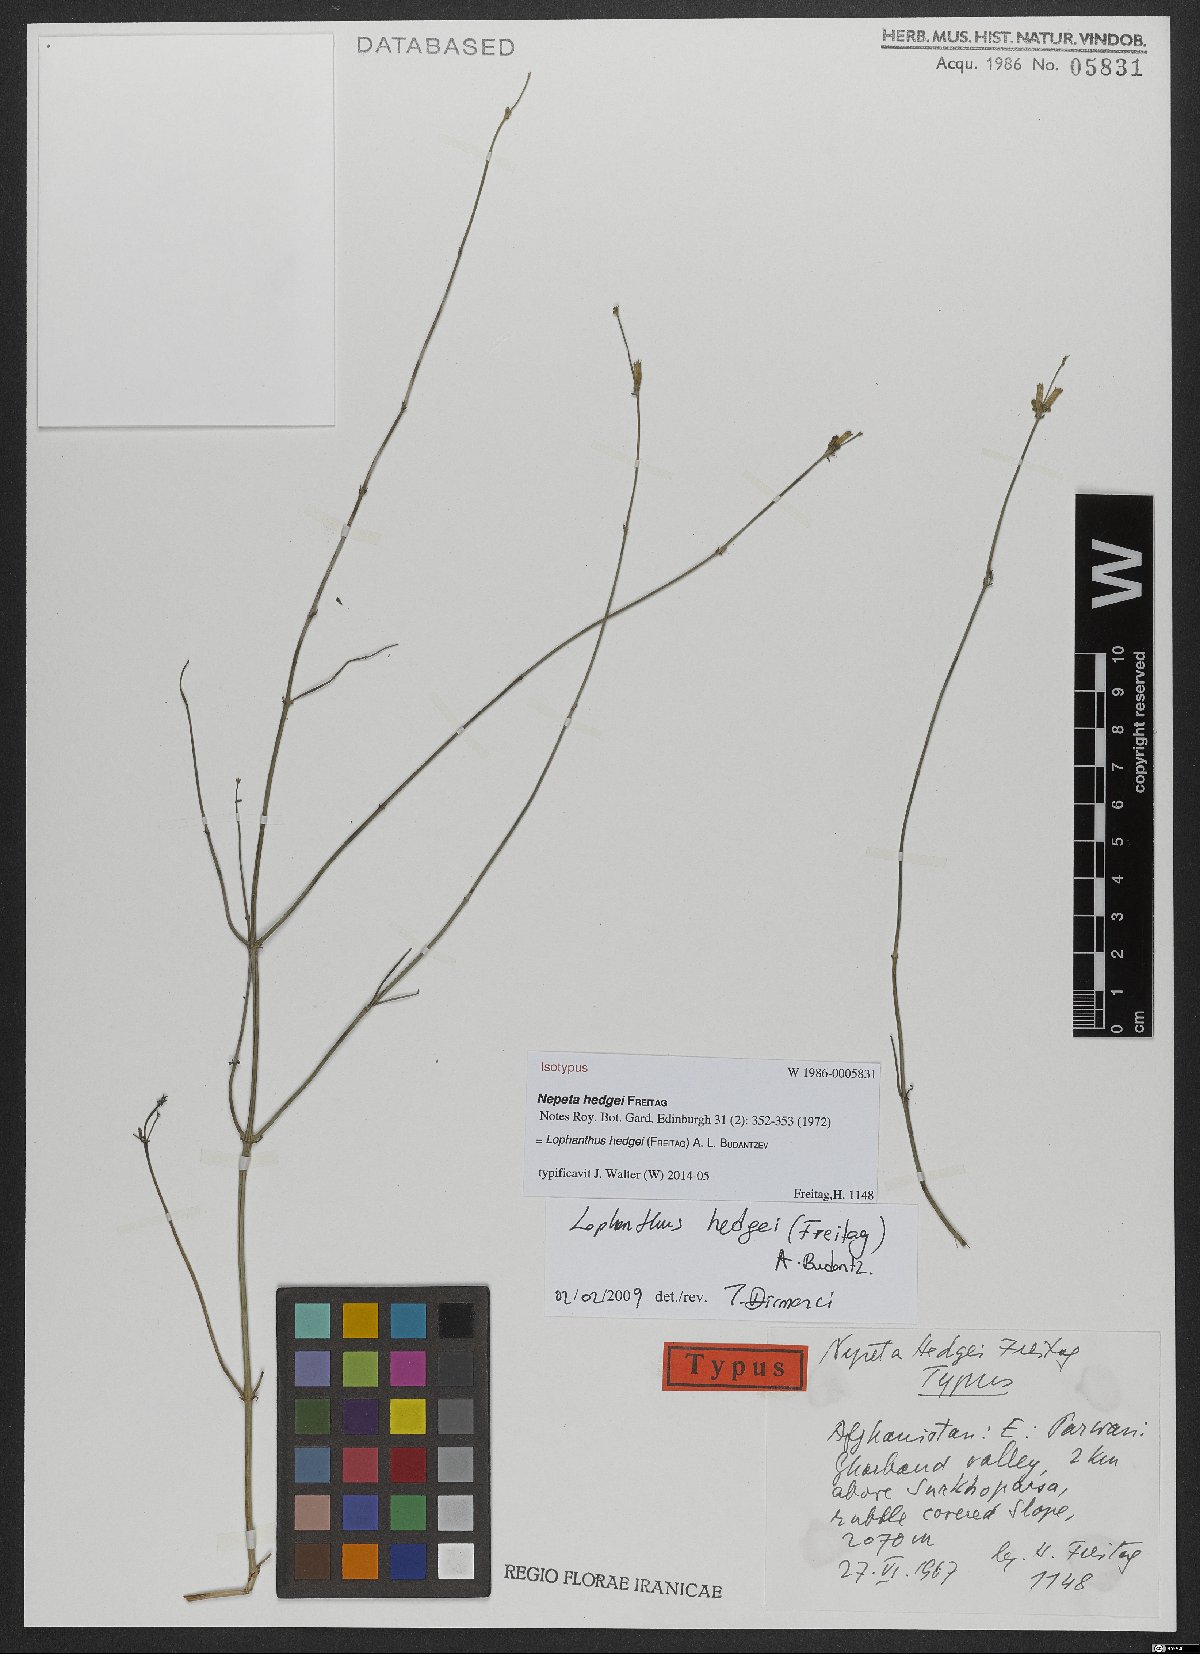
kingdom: Plantae
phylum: Tracheophyta
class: Magnoliopsida
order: Lamiales
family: Lamiaceae
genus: Nepeta
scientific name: Nepeta hedgei
